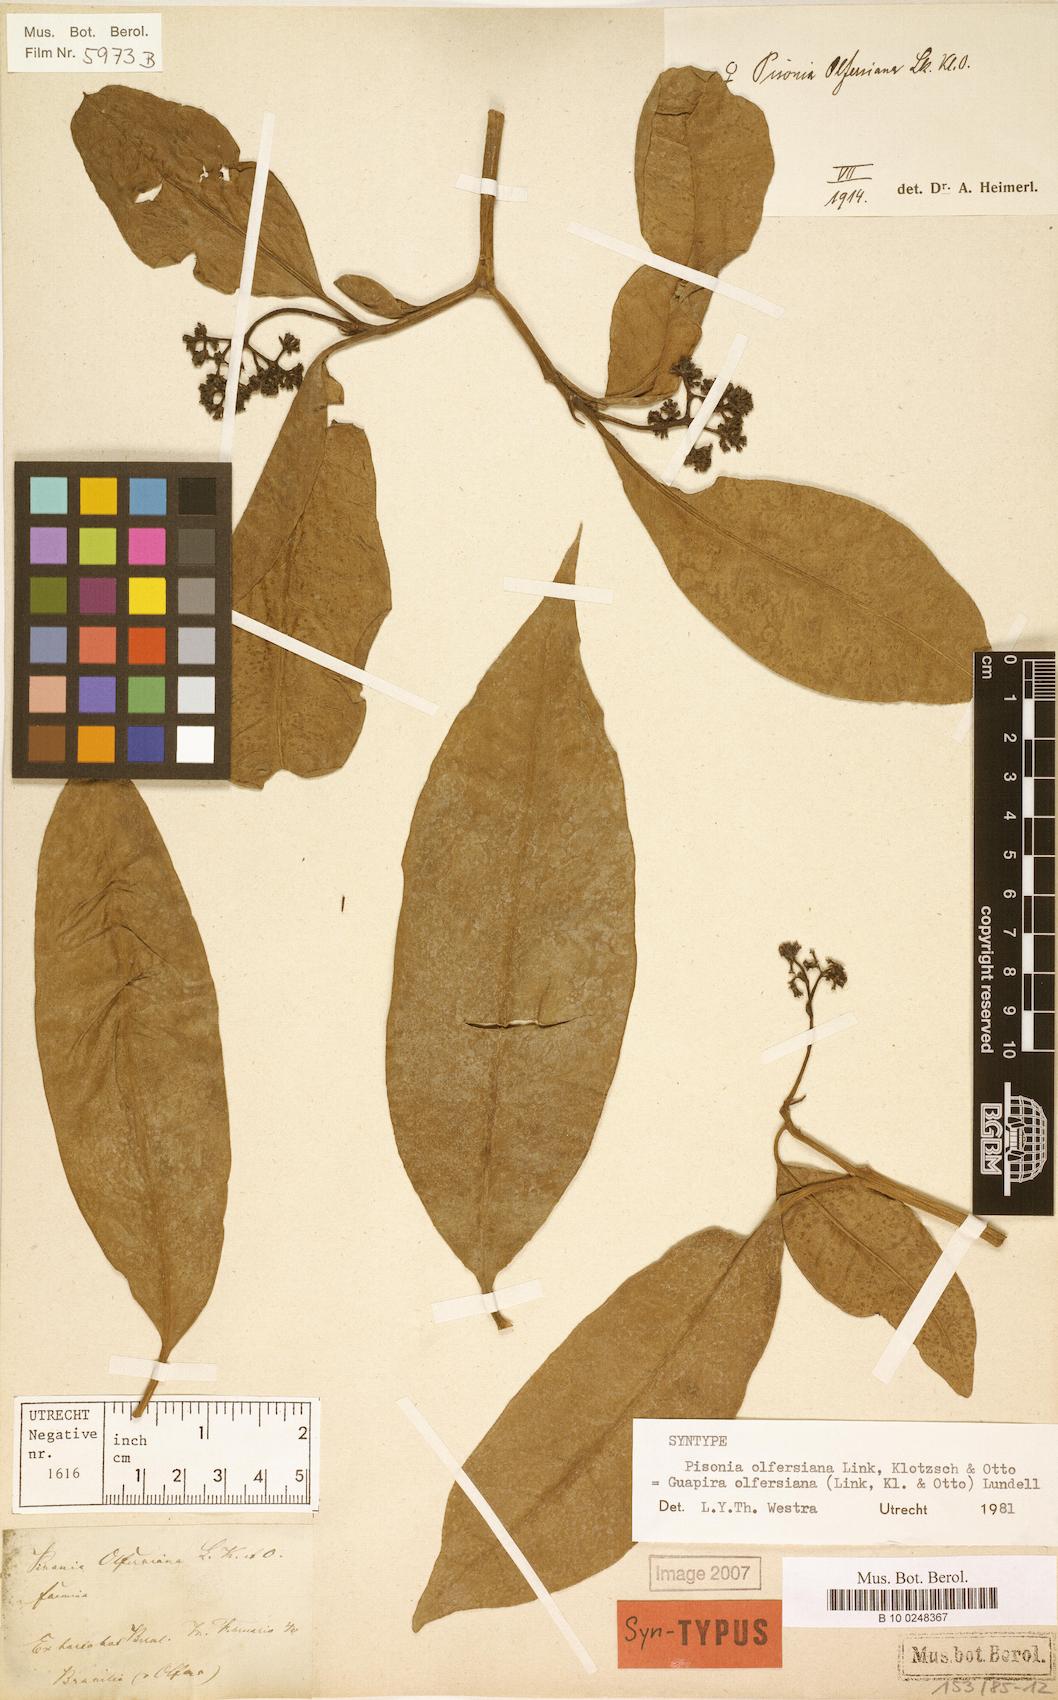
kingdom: Plantae
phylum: Tracheophyta
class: Magnoliopsida
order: Caryophyllales
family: Nyctaginaceae
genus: Guapira
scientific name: Guapira opposita
